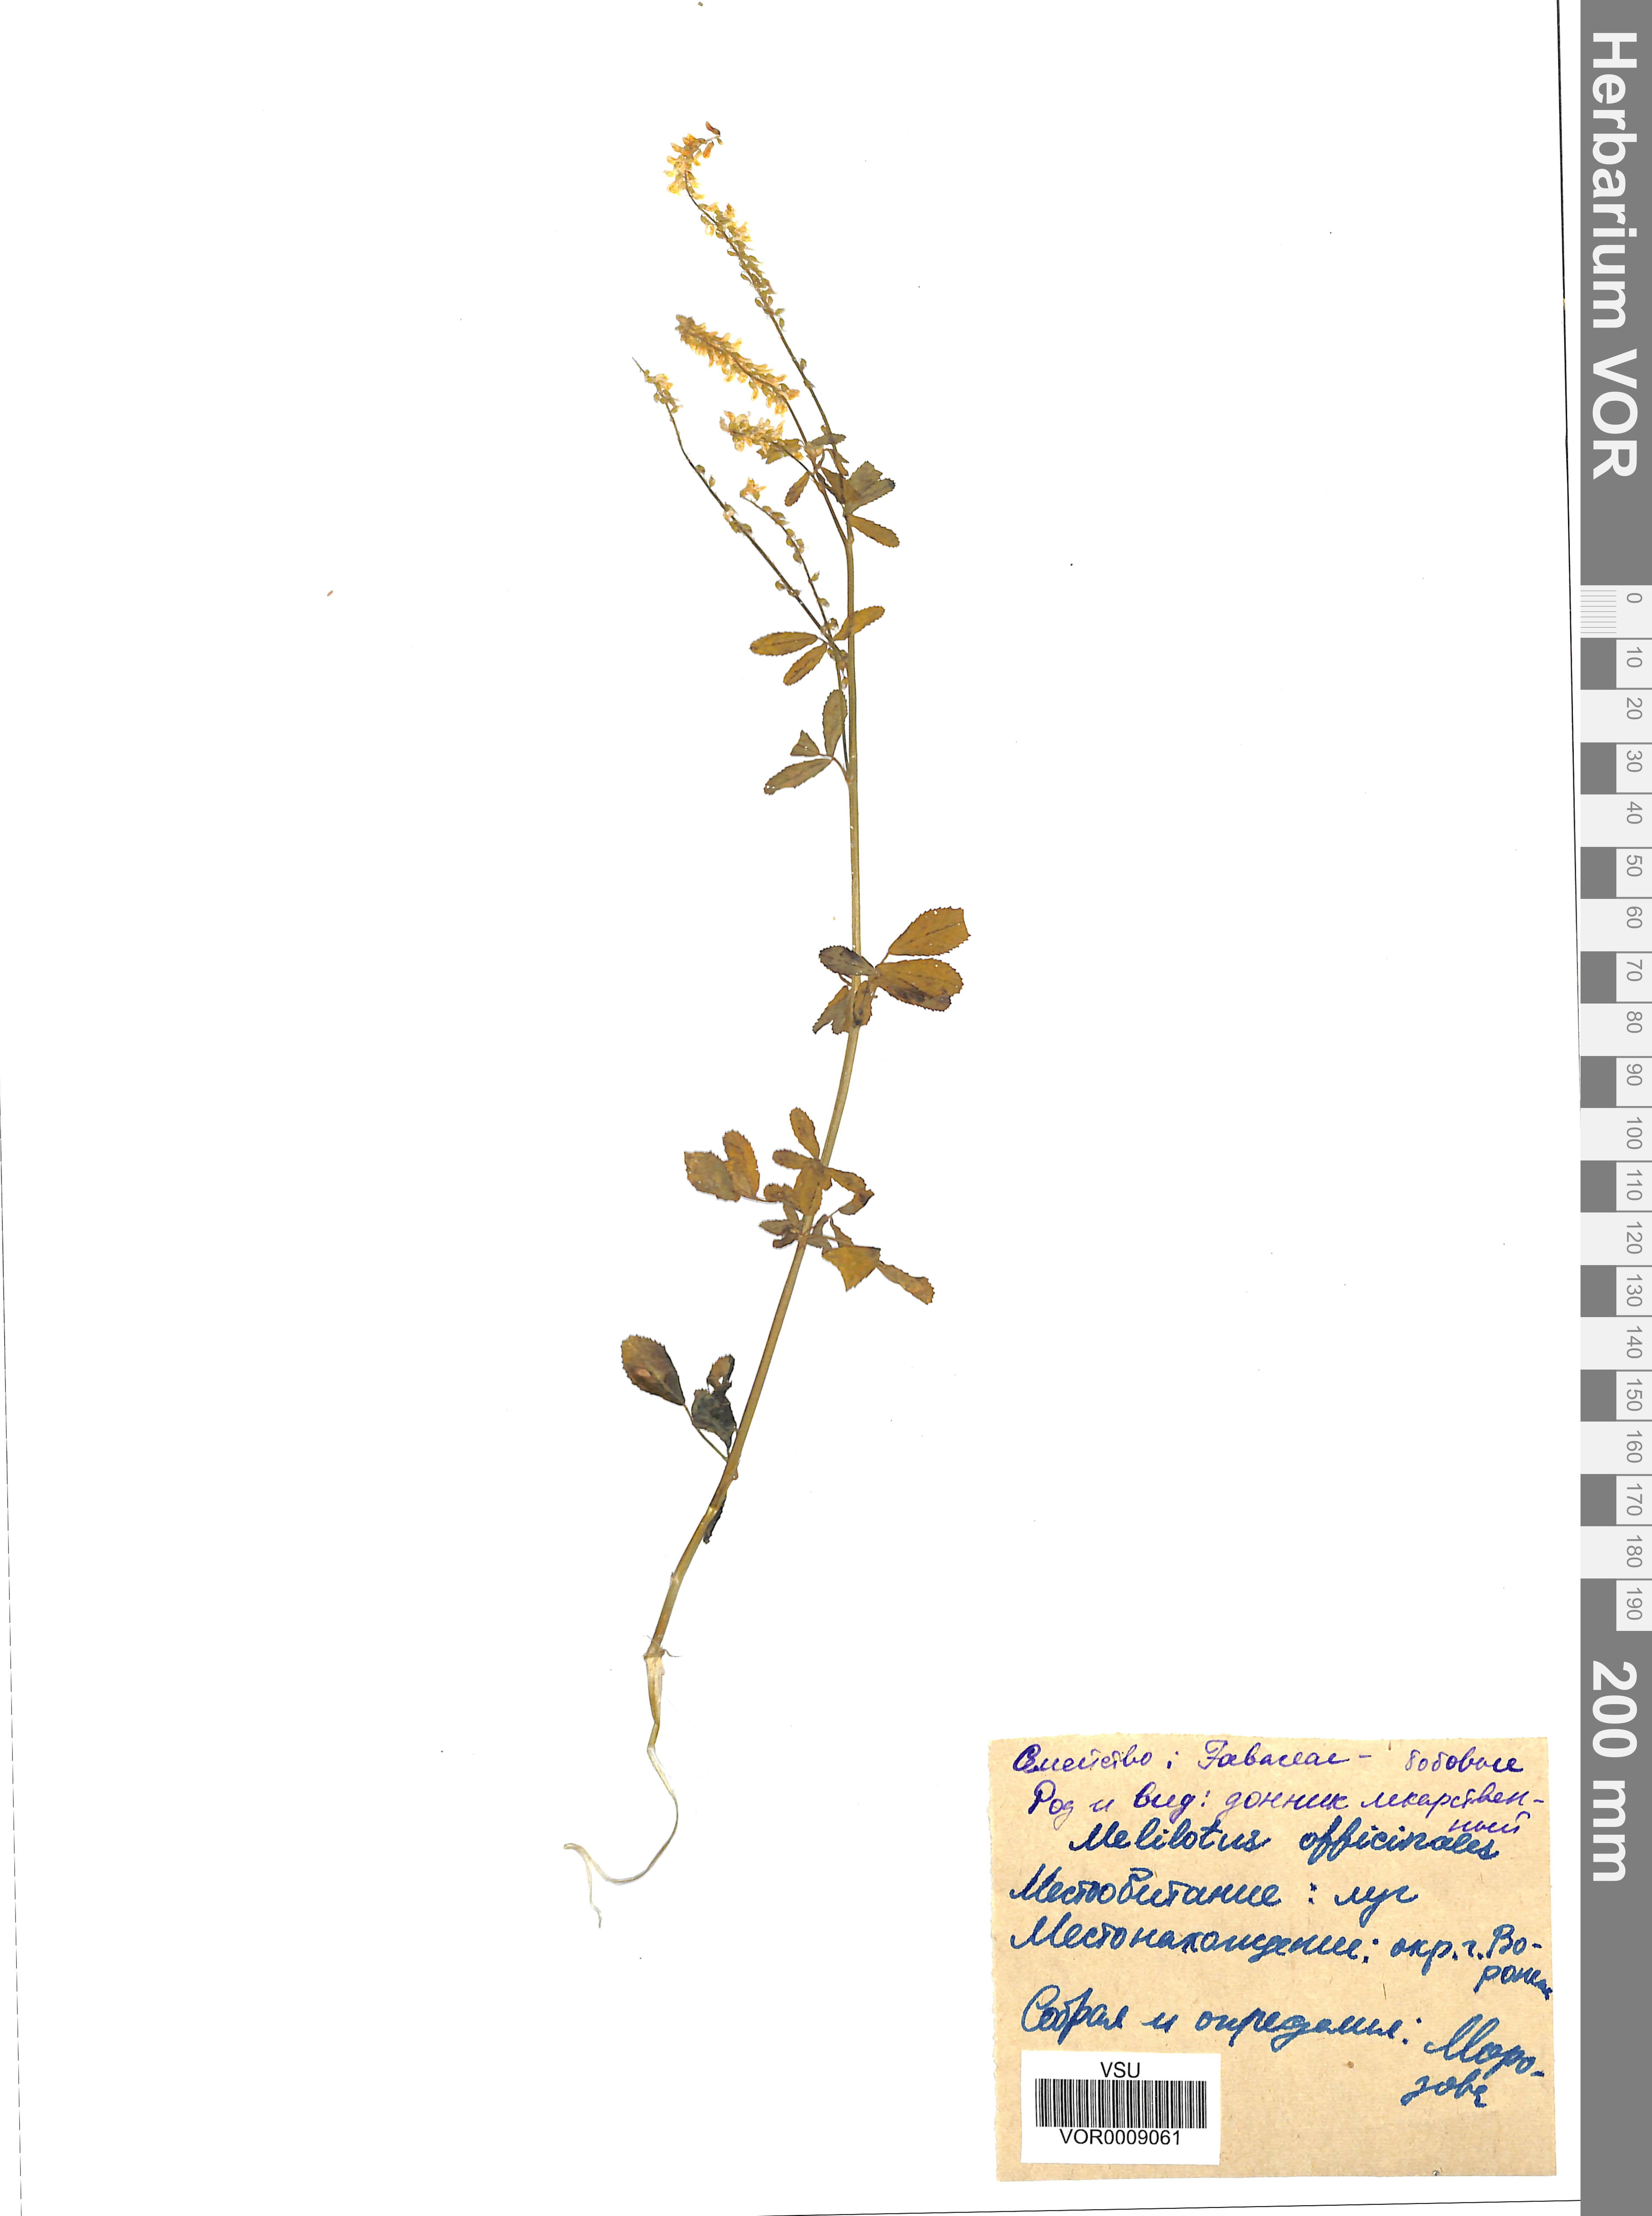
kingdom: Plantae
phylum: Tracheophyta
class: Magnoliopsida
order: Fabales
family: Fabaceae
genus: Melilotus
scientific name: Melilotus officinalis
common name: Sweetclover
